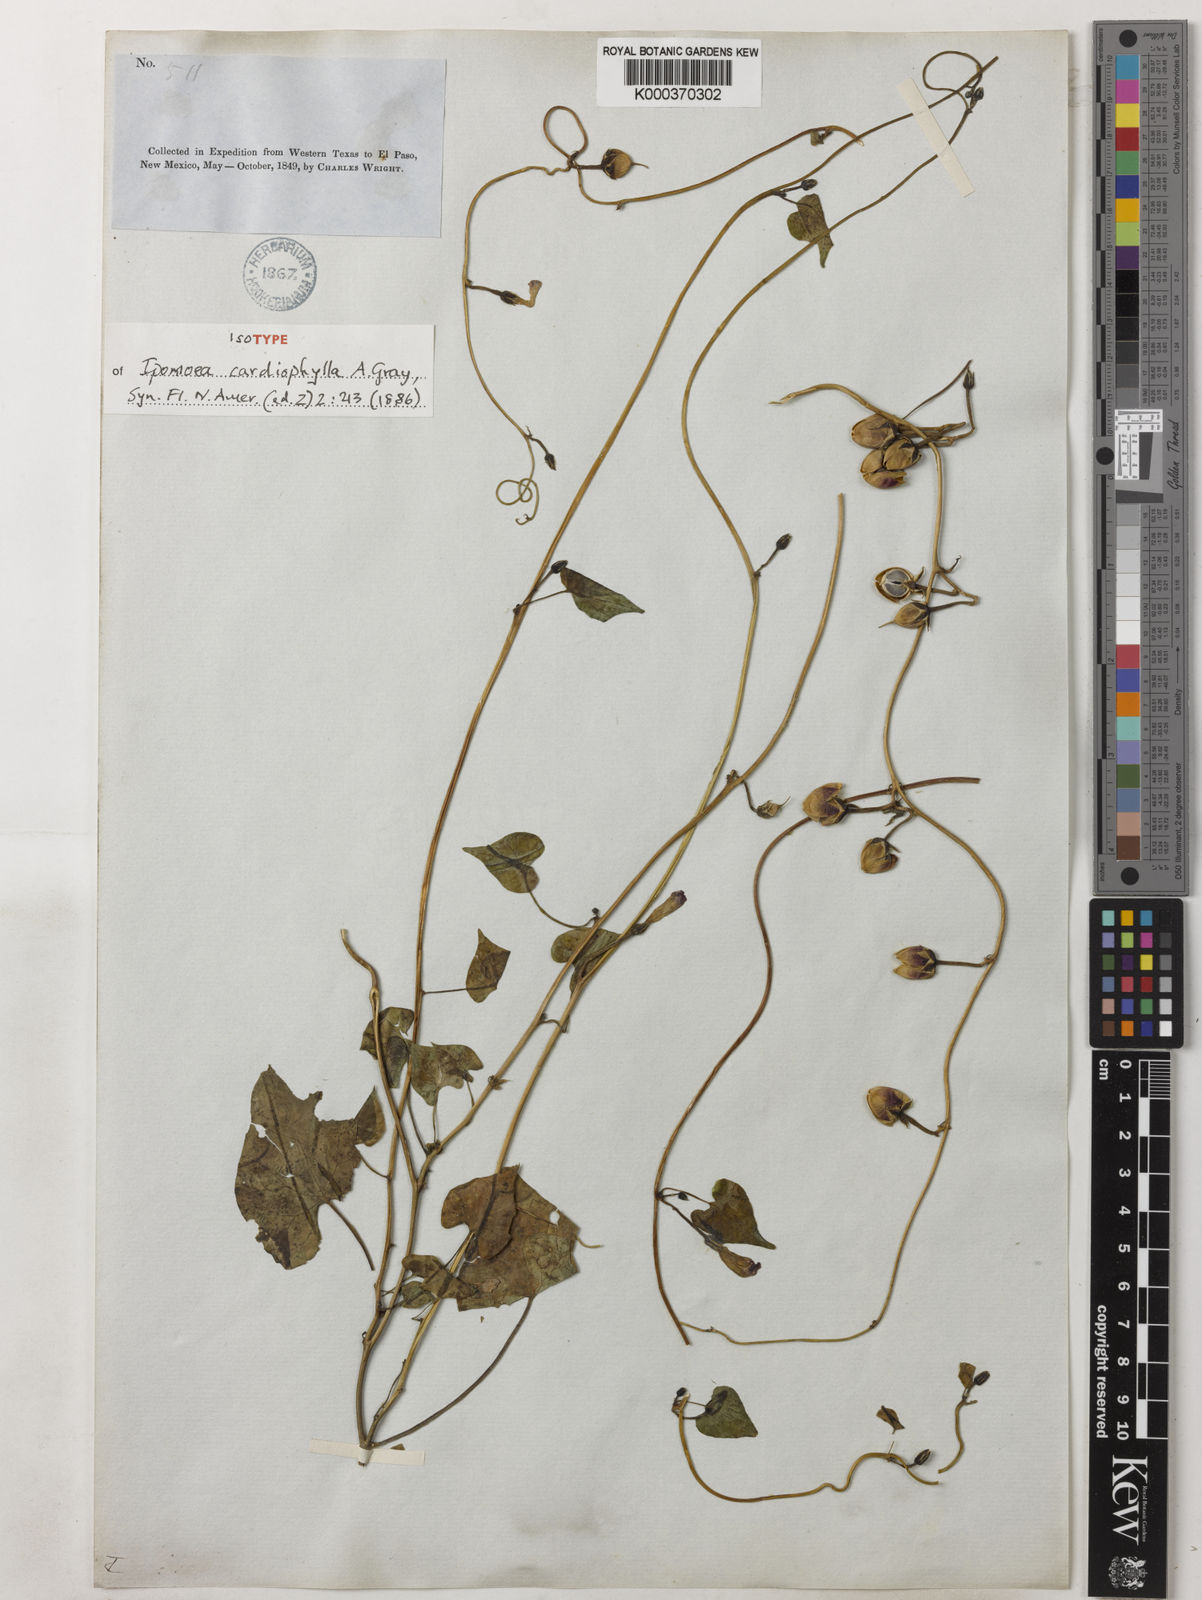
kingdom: Plantae
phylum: Tracheophyta
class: Magnoliopsida
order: Solanales
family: Convolvulaceae
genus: Ipomoea
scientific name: Ipomoea cardiophylla
